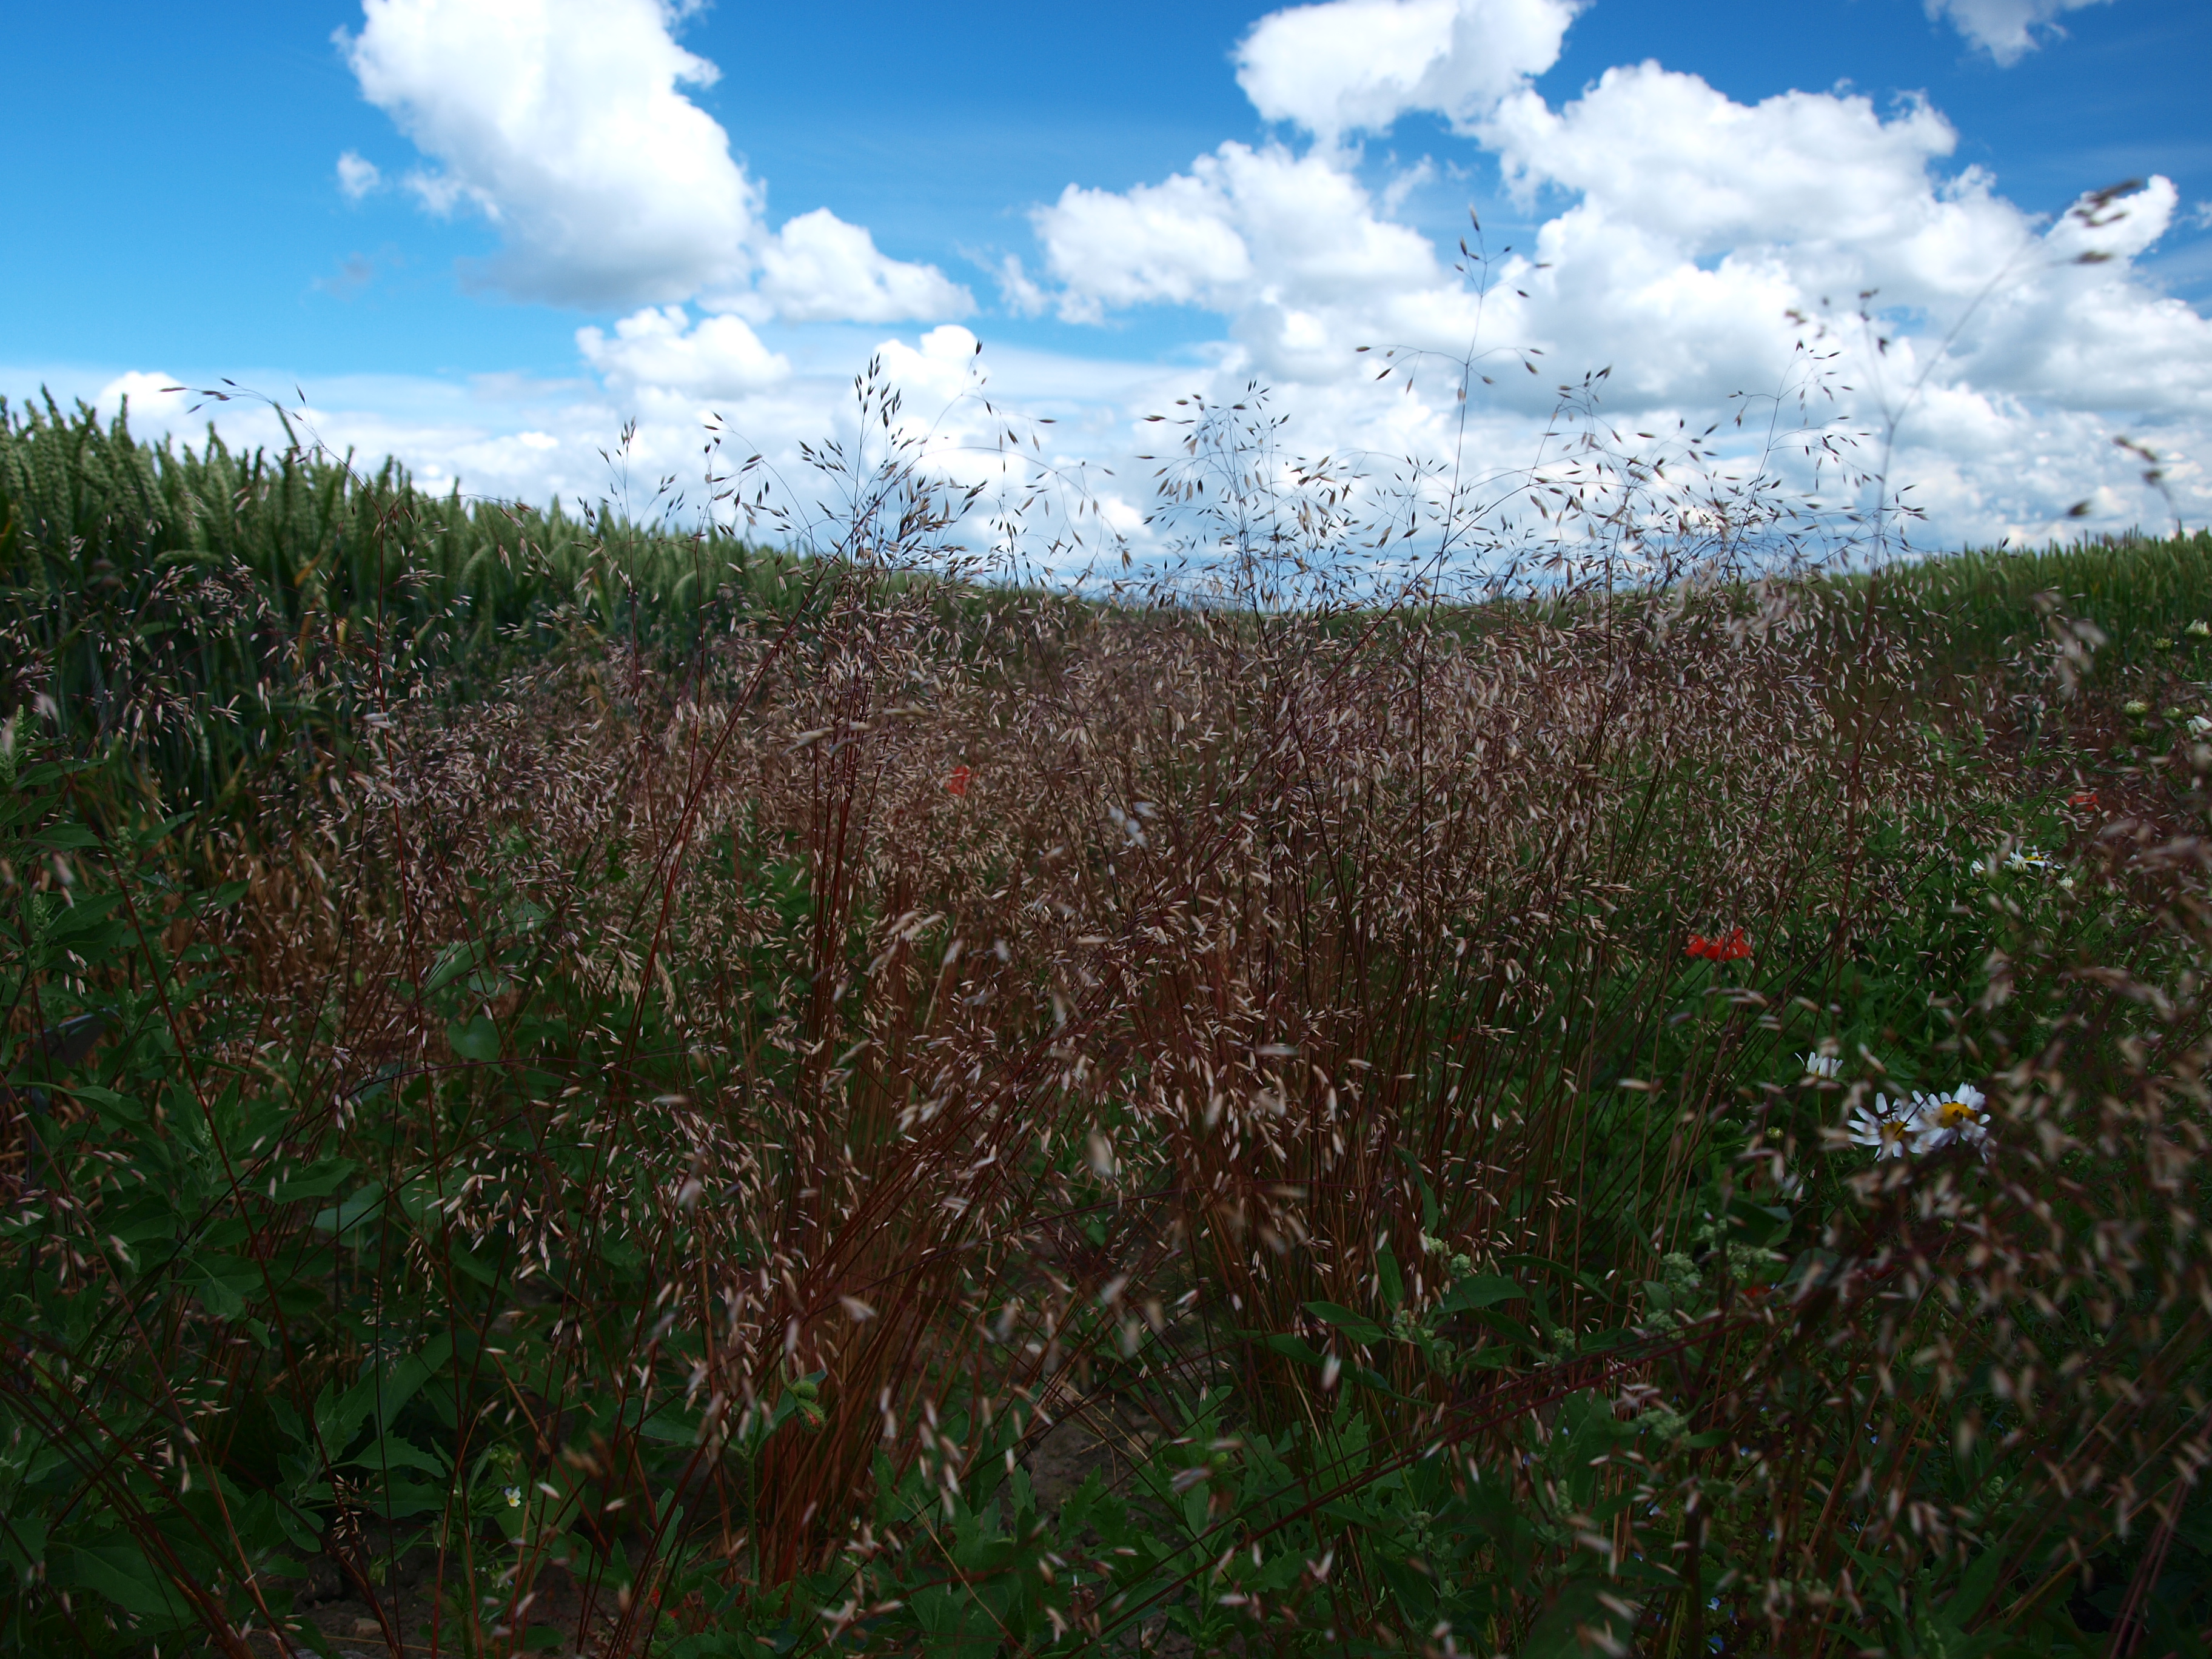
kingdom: Plantae
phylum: Tracheophyta
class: Liliopsida
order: Poales
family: Poaceae
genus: Avenella
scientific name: Avenella flexuosa
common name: Wavy hairgrass
